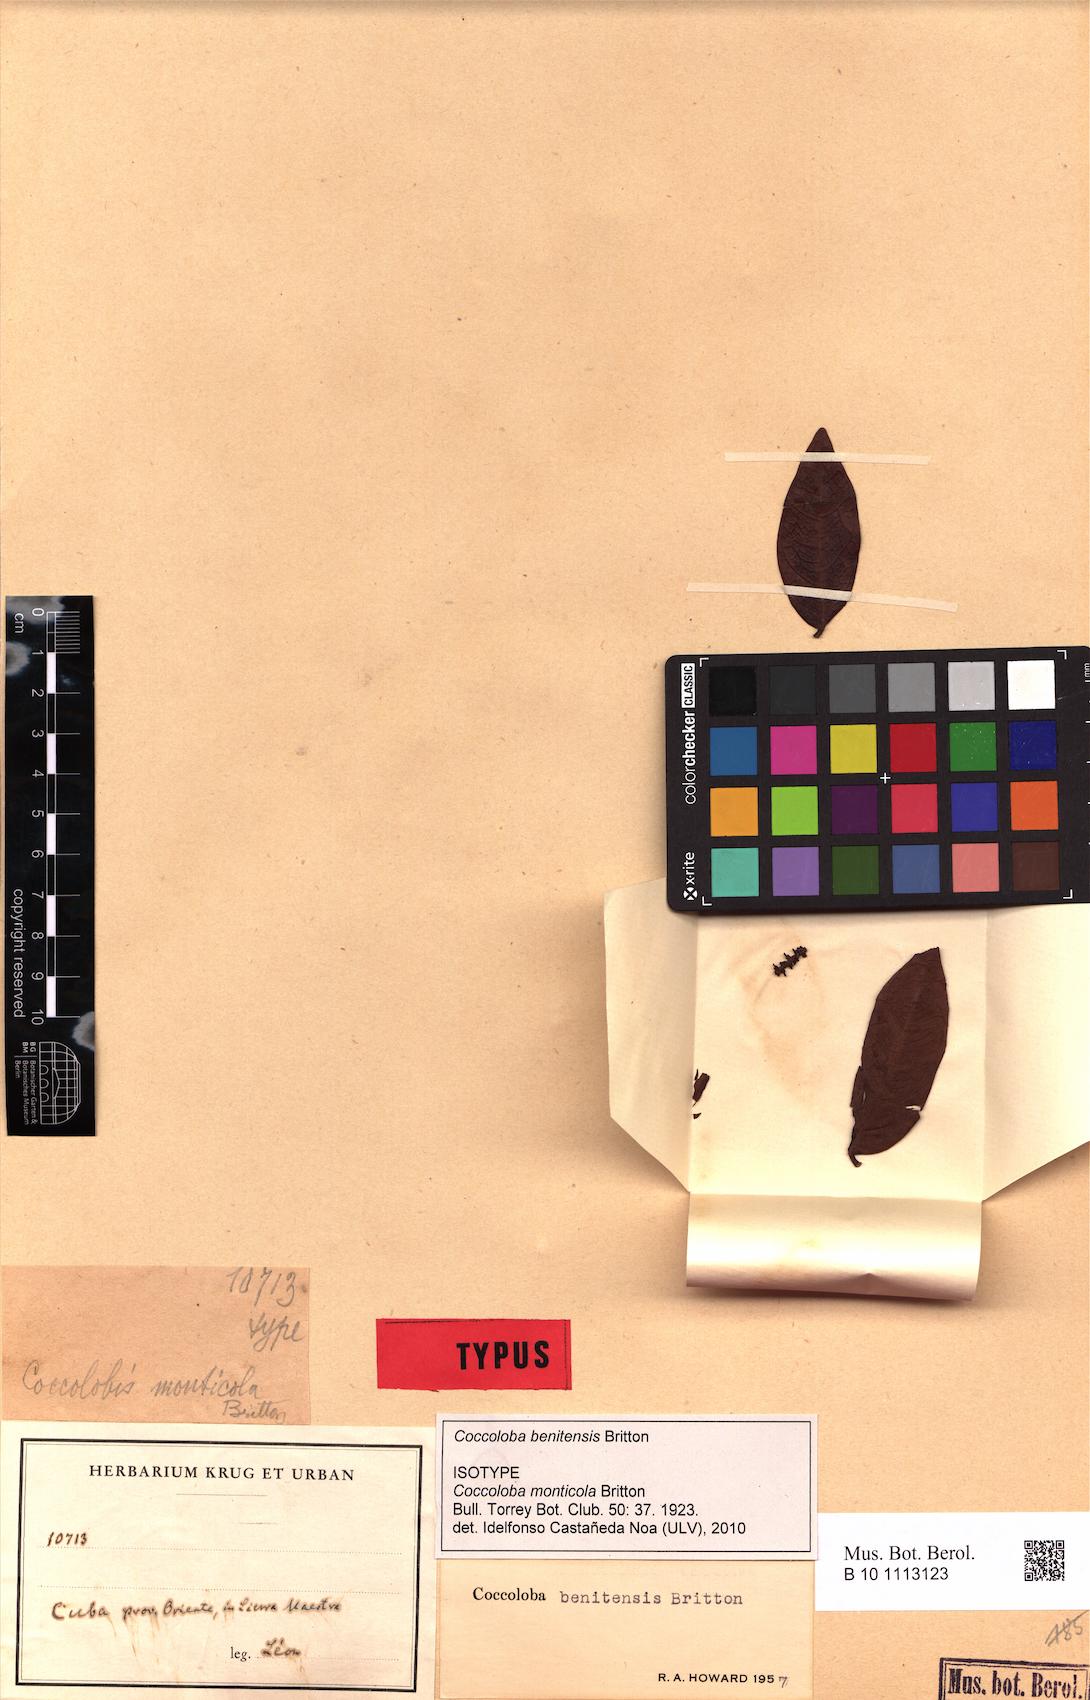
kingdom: Plantae
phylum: Tracheophyta
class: Magnoliopsida
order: Caryophyllales
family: Polygonaceae
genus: Coccoloba
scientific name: Coccoloba benitensis
